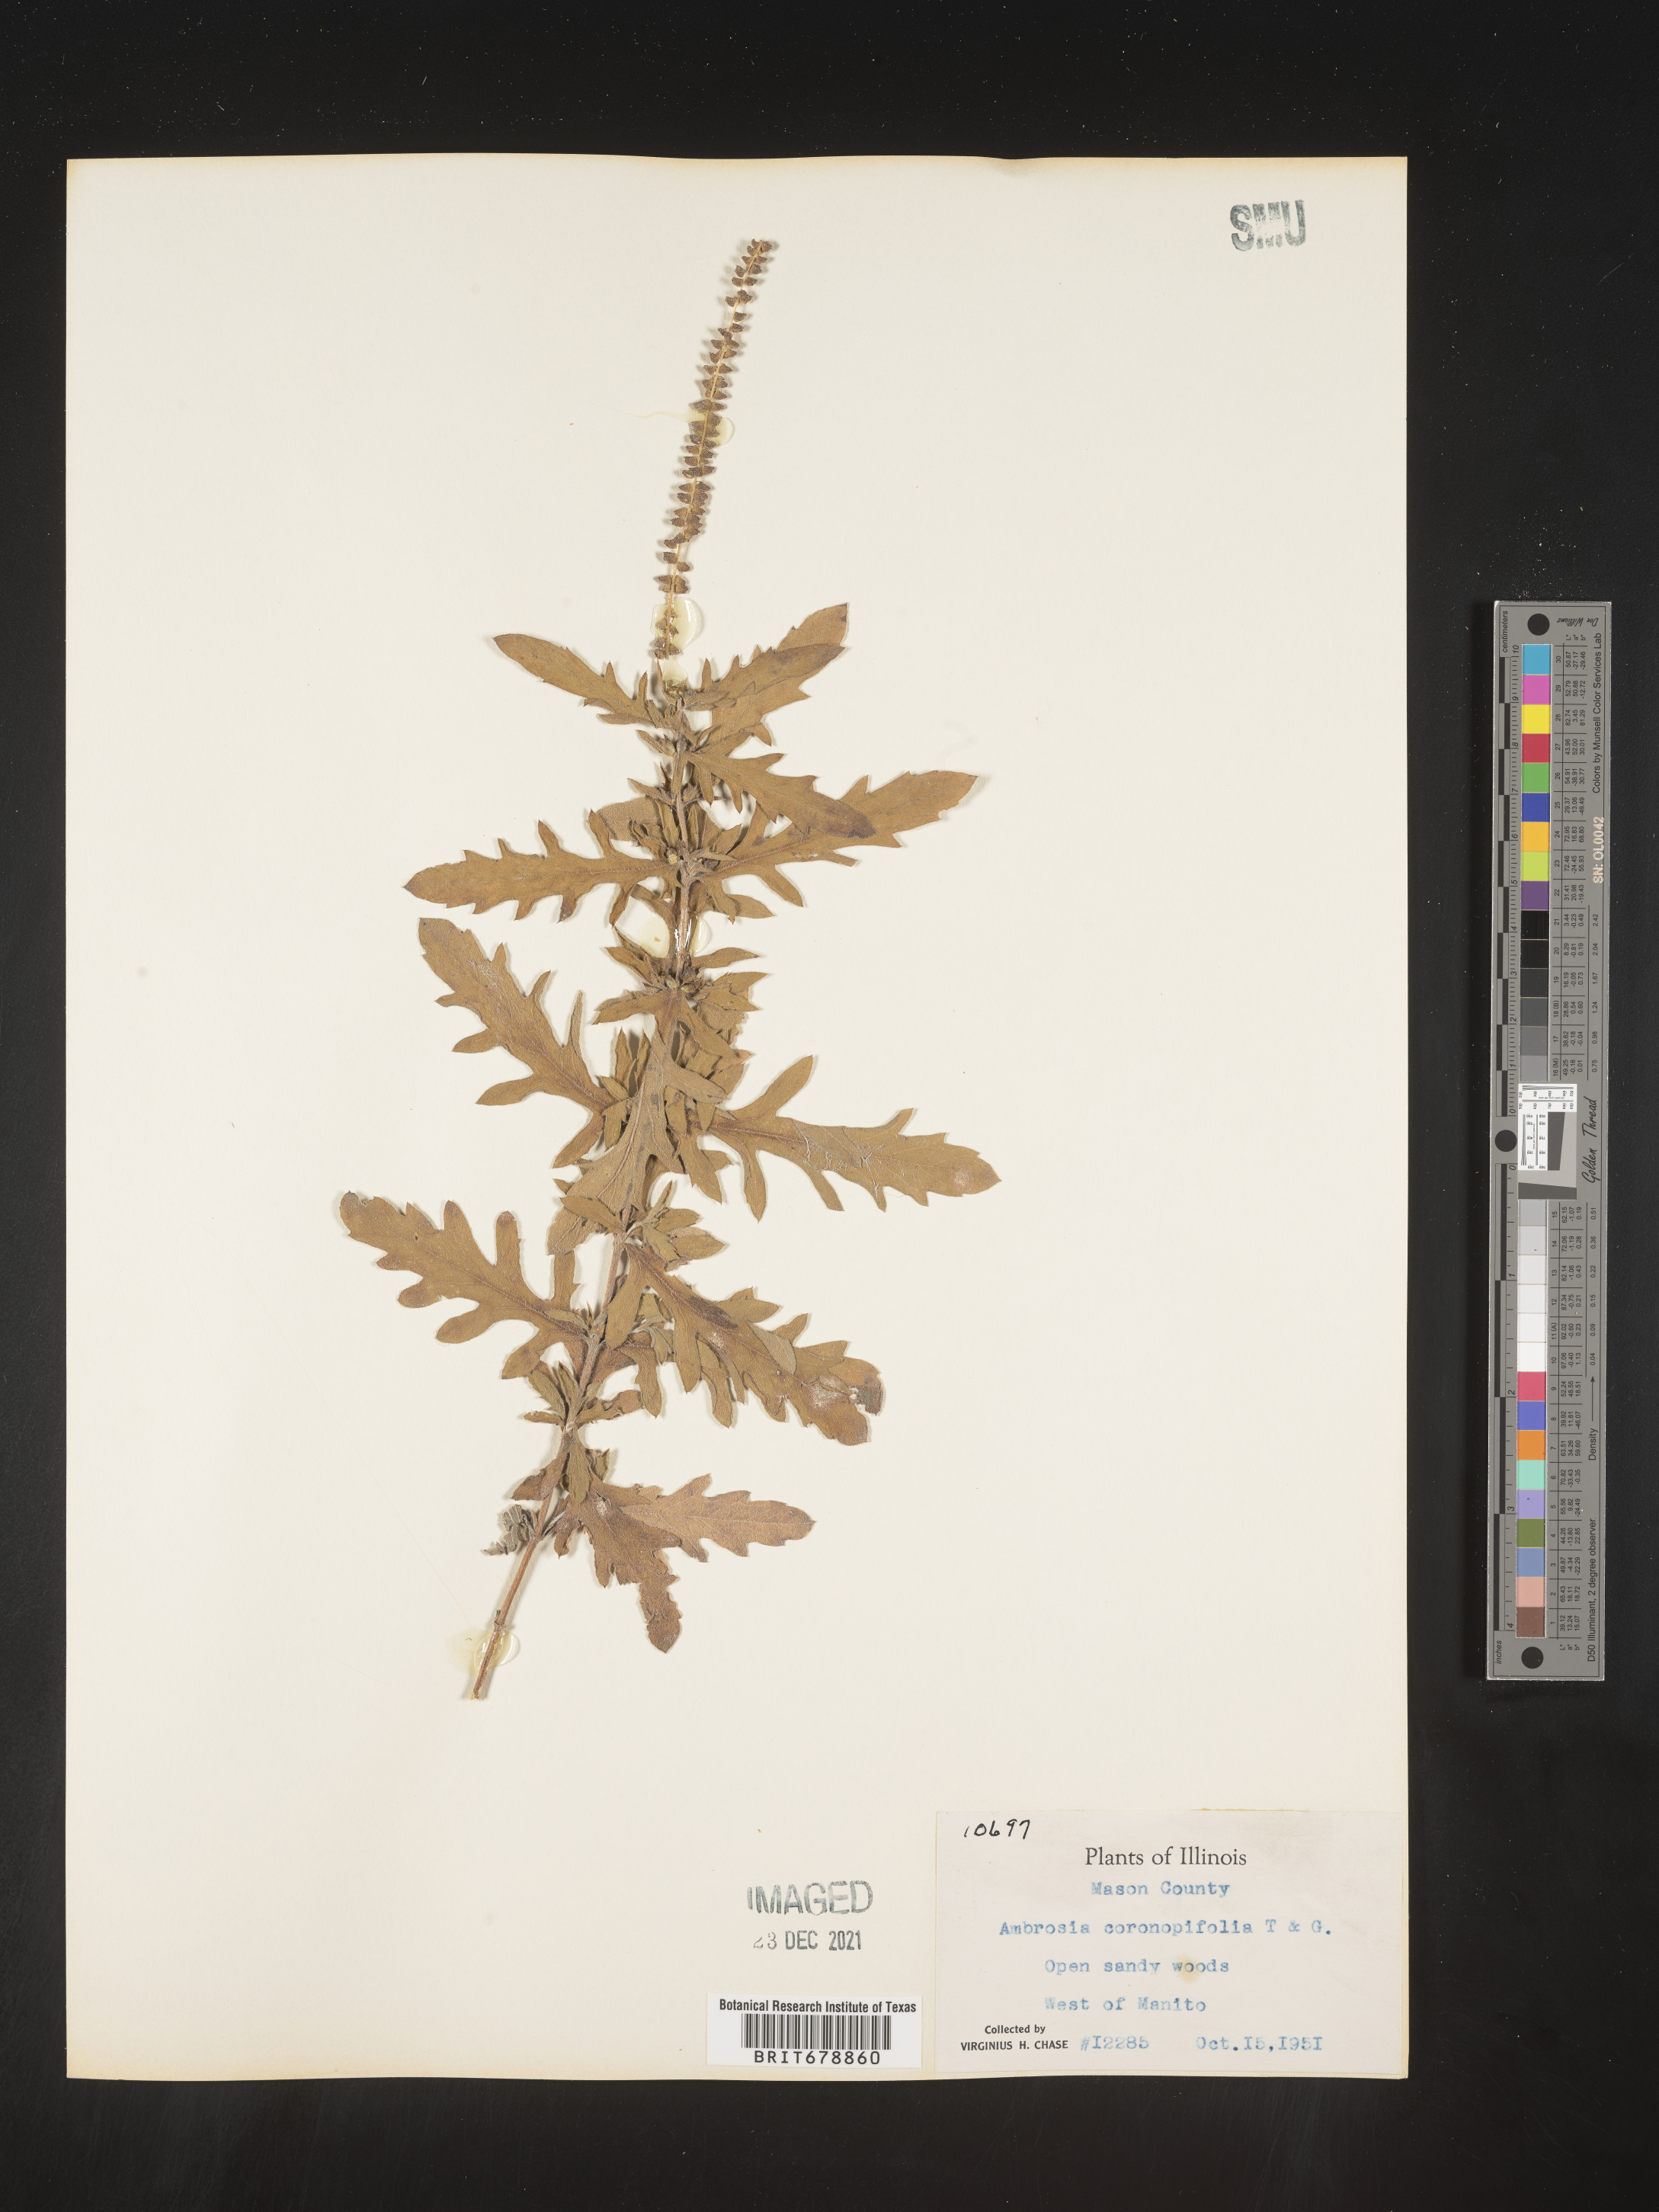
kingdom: Plantae
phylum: Tracheophyta
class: Magnoliopsida
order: Asterales
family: Asteraceae
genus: Ambrosia
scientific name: Ambrosia psilostachya
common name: Perennial ragweed
